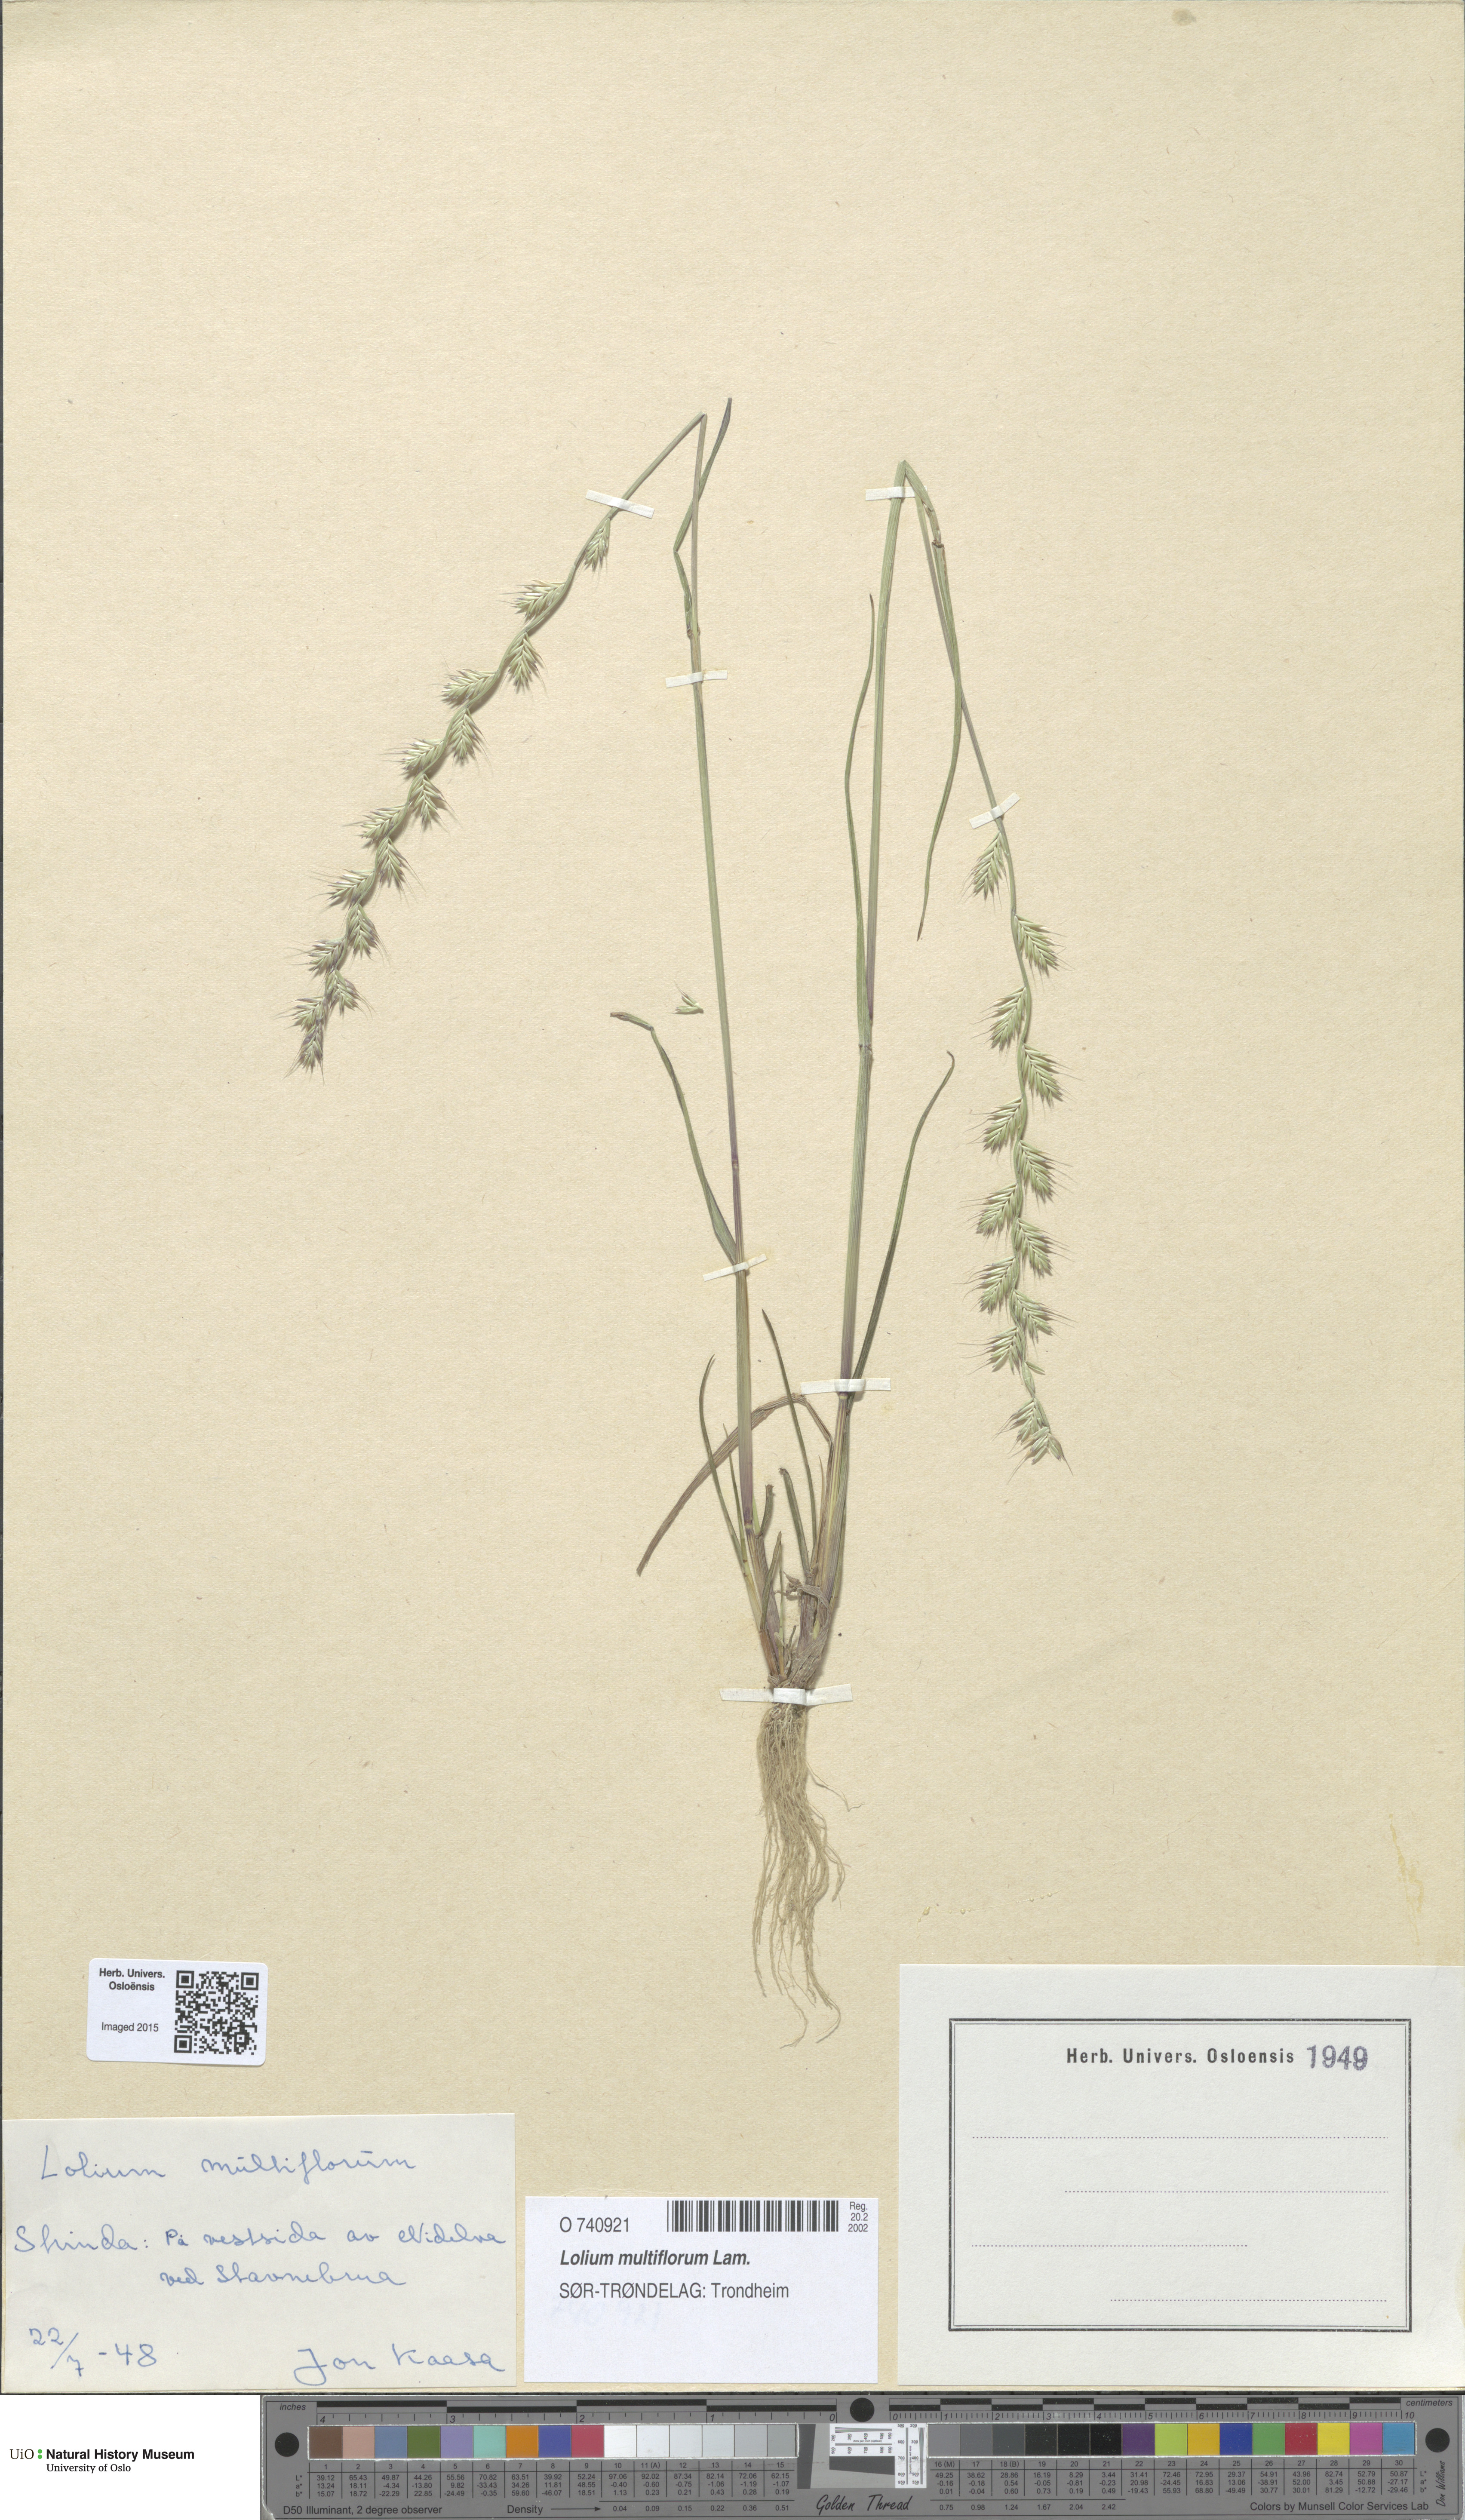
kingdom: Plantae
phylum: Tracheophyta
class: Liliopsida
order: Poales
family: Poaceae
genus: Lolium
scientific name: Lolium multiflorum
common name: Annual ryegrass
